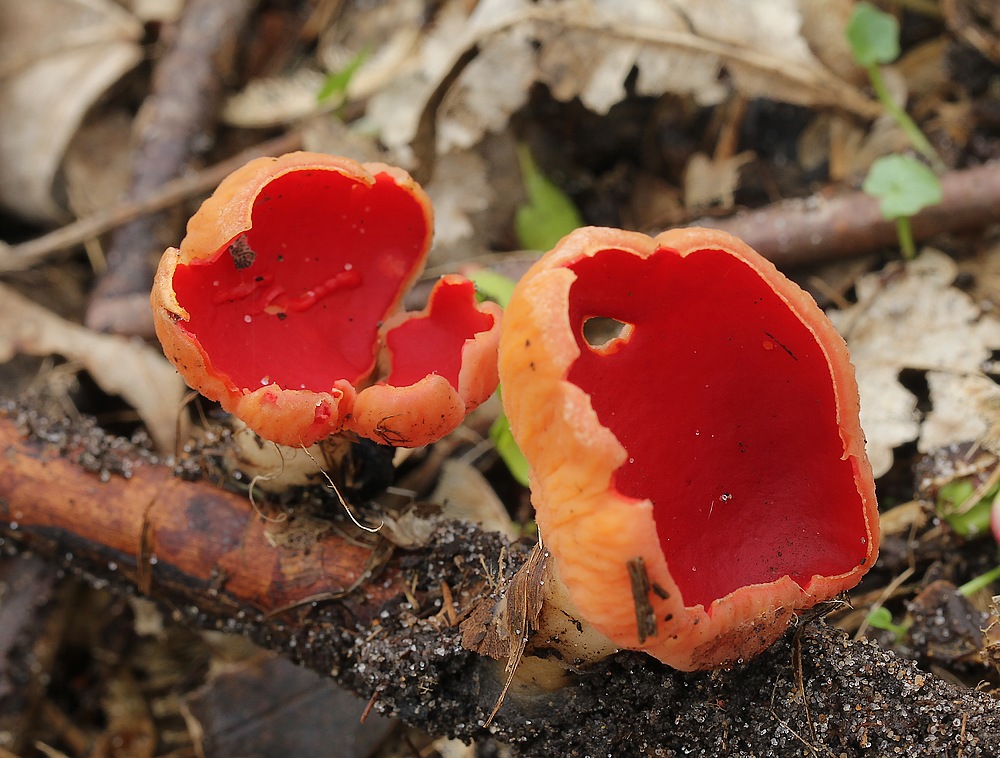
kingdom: Fungi
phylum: Ascomycota
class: Pezizomycetes
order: Pezizales
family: Sarcoscyphaceae
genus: Sarcoscypha
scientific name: Sarcoscypha austriaca
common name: krølhåret pragtbæger
